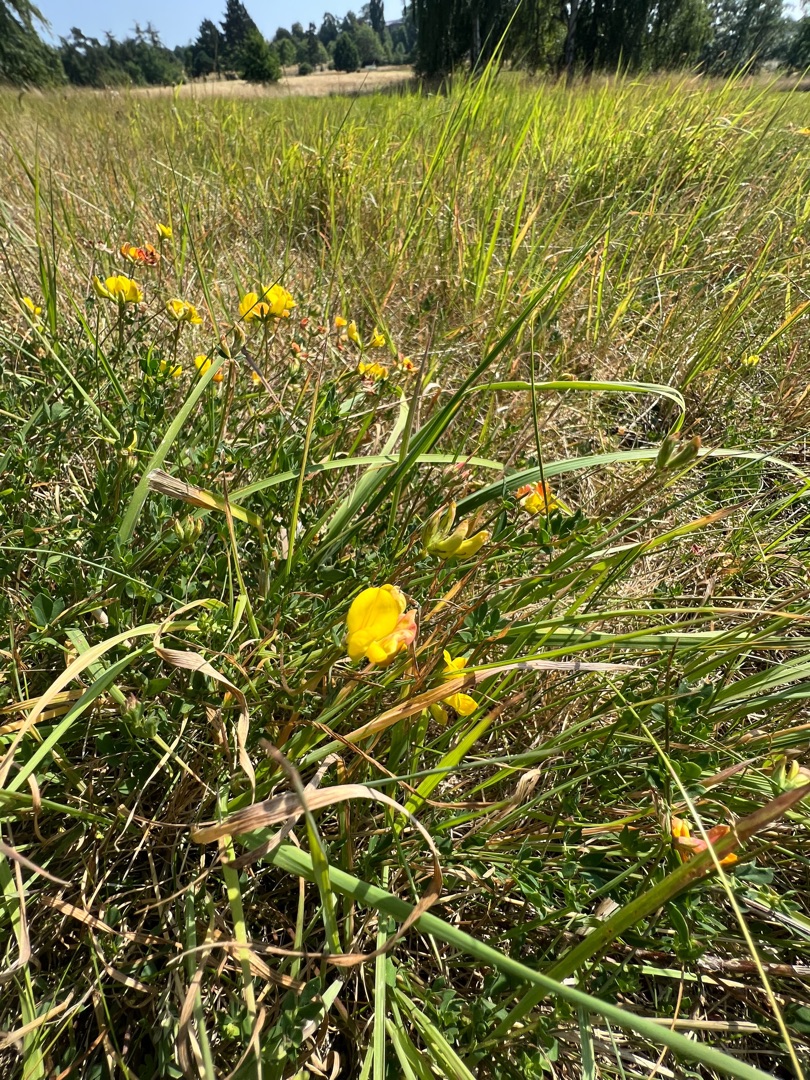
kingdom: Plantae
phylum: Tracheophyta
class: Magnoliopsida
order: Fabales
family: Fabaceae
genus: Lotus
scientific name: Lotus corniculatus
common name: Almindelig kællingetand
